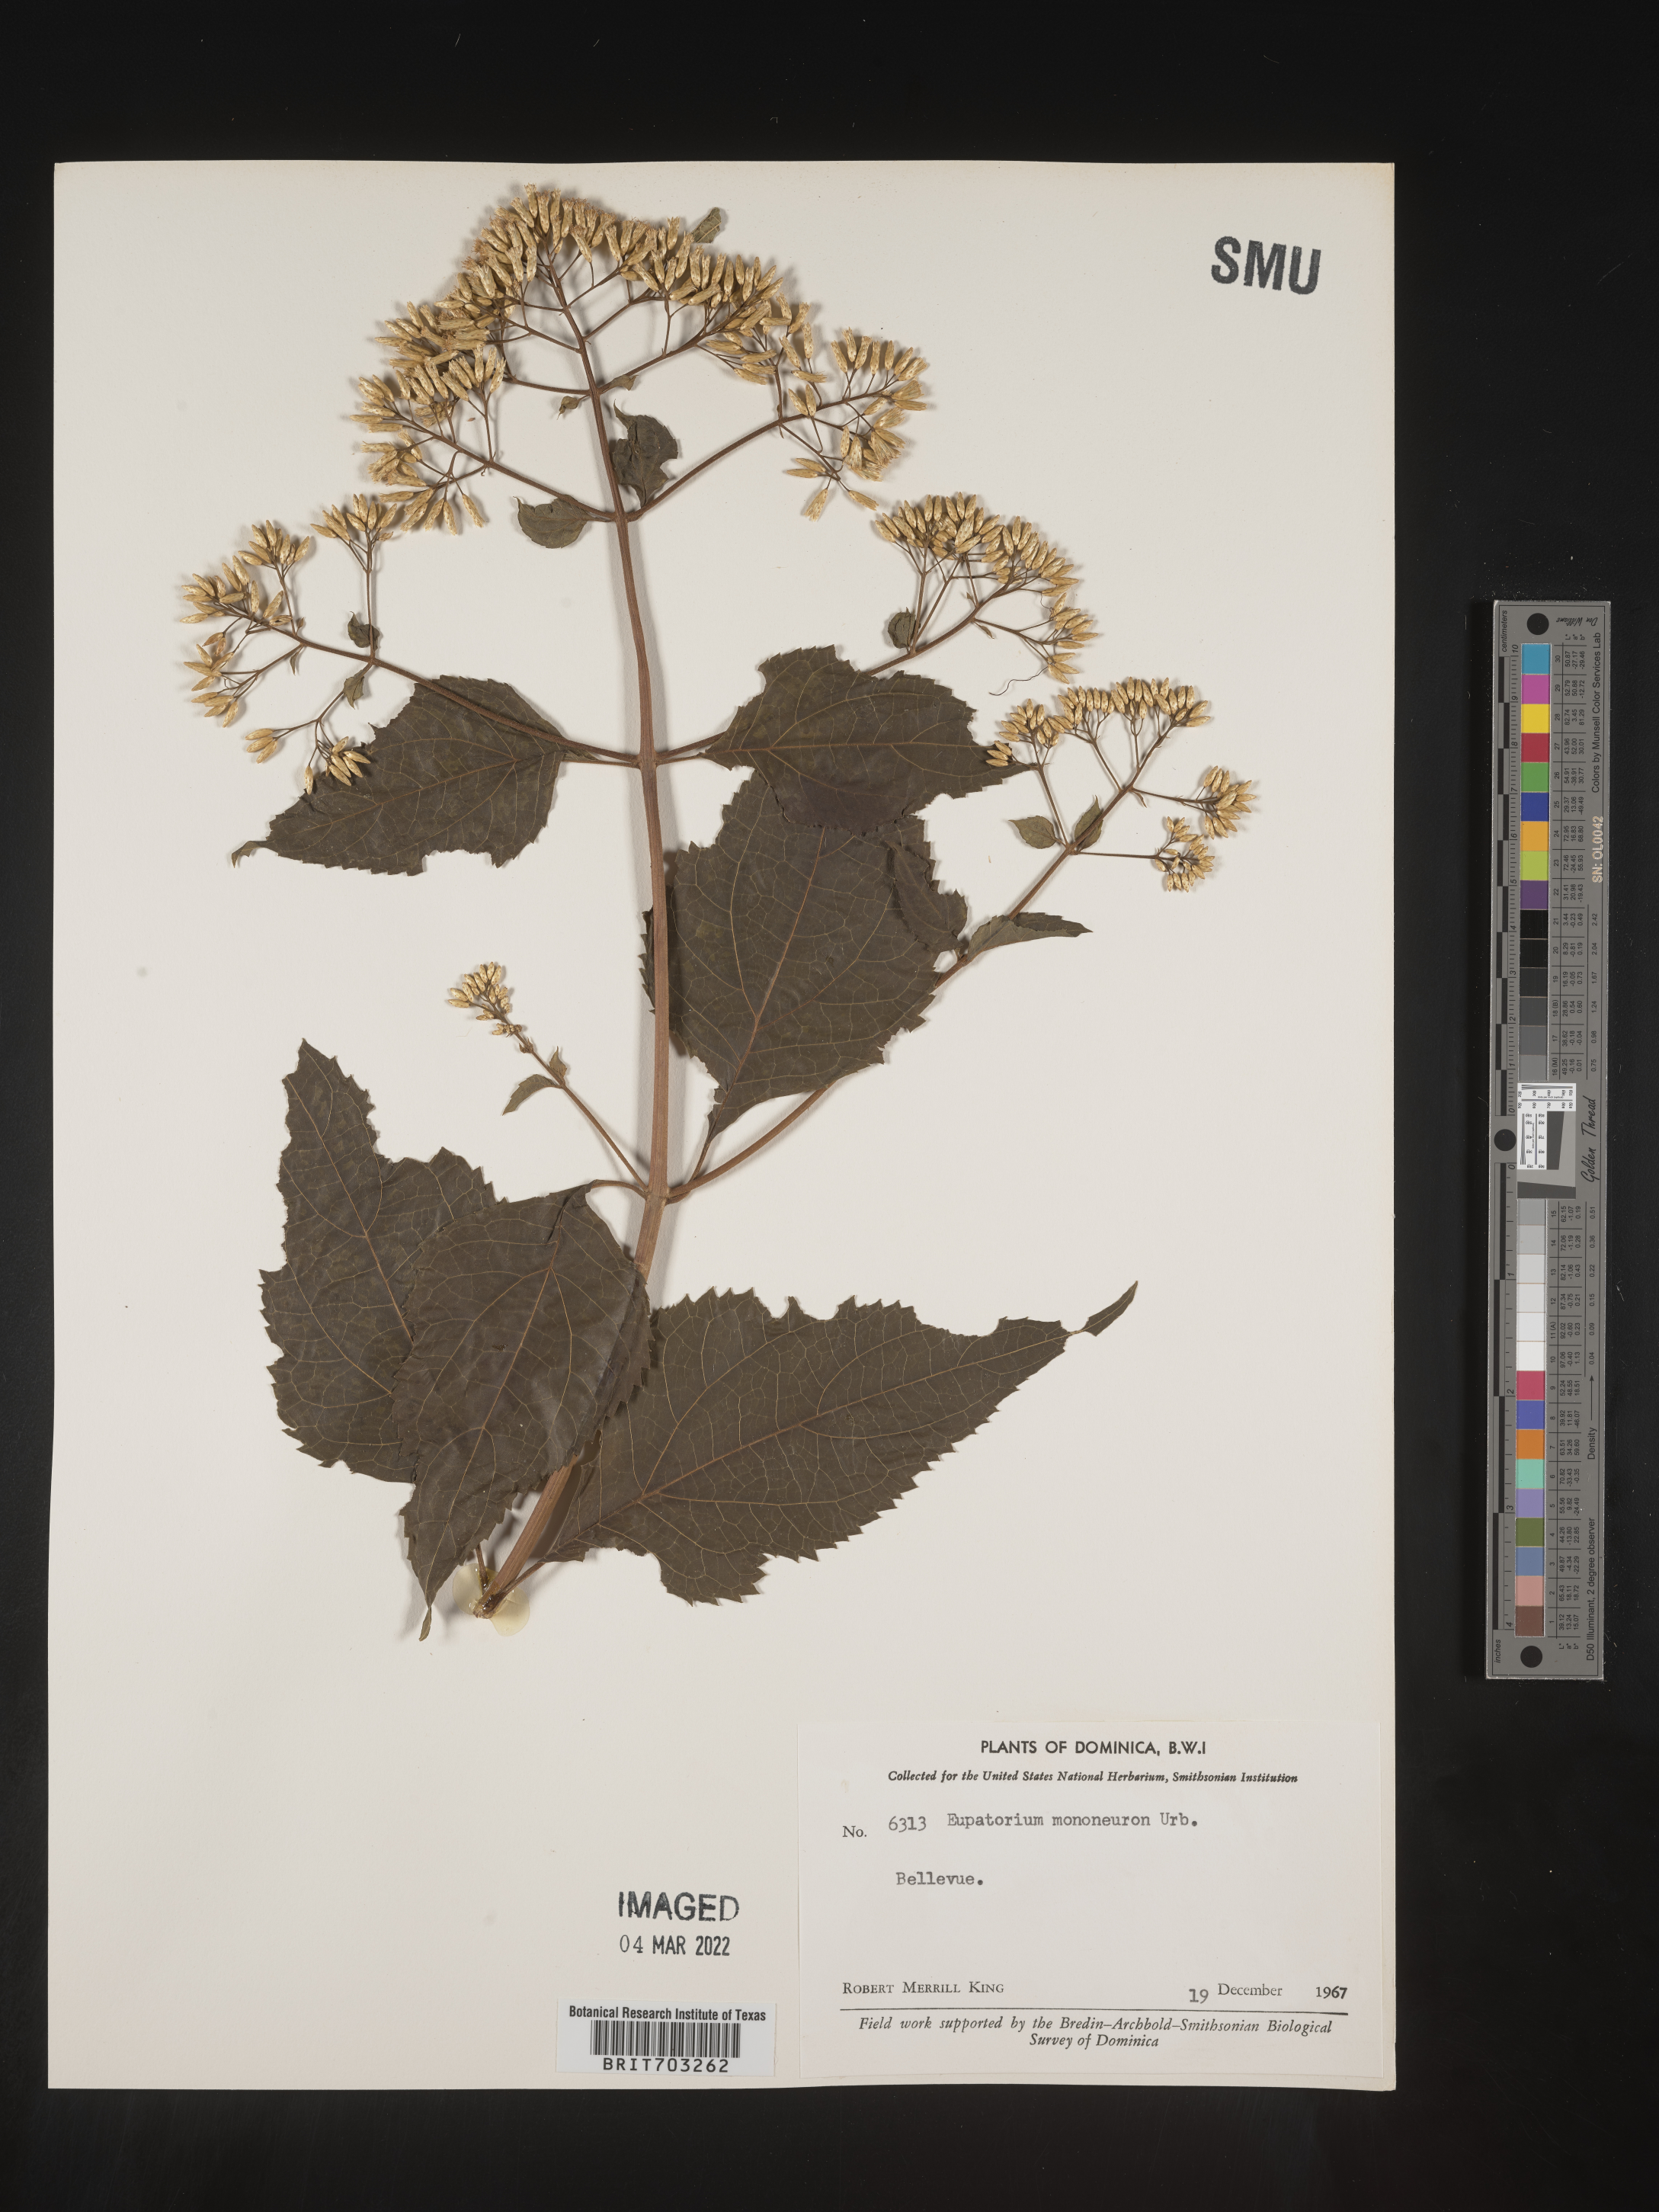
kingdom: Plantae
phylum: Tracheophyta
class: Magnoliopsida
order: Asterales
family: Asteraceae
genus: Eupatorium
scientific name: Eupatorium
